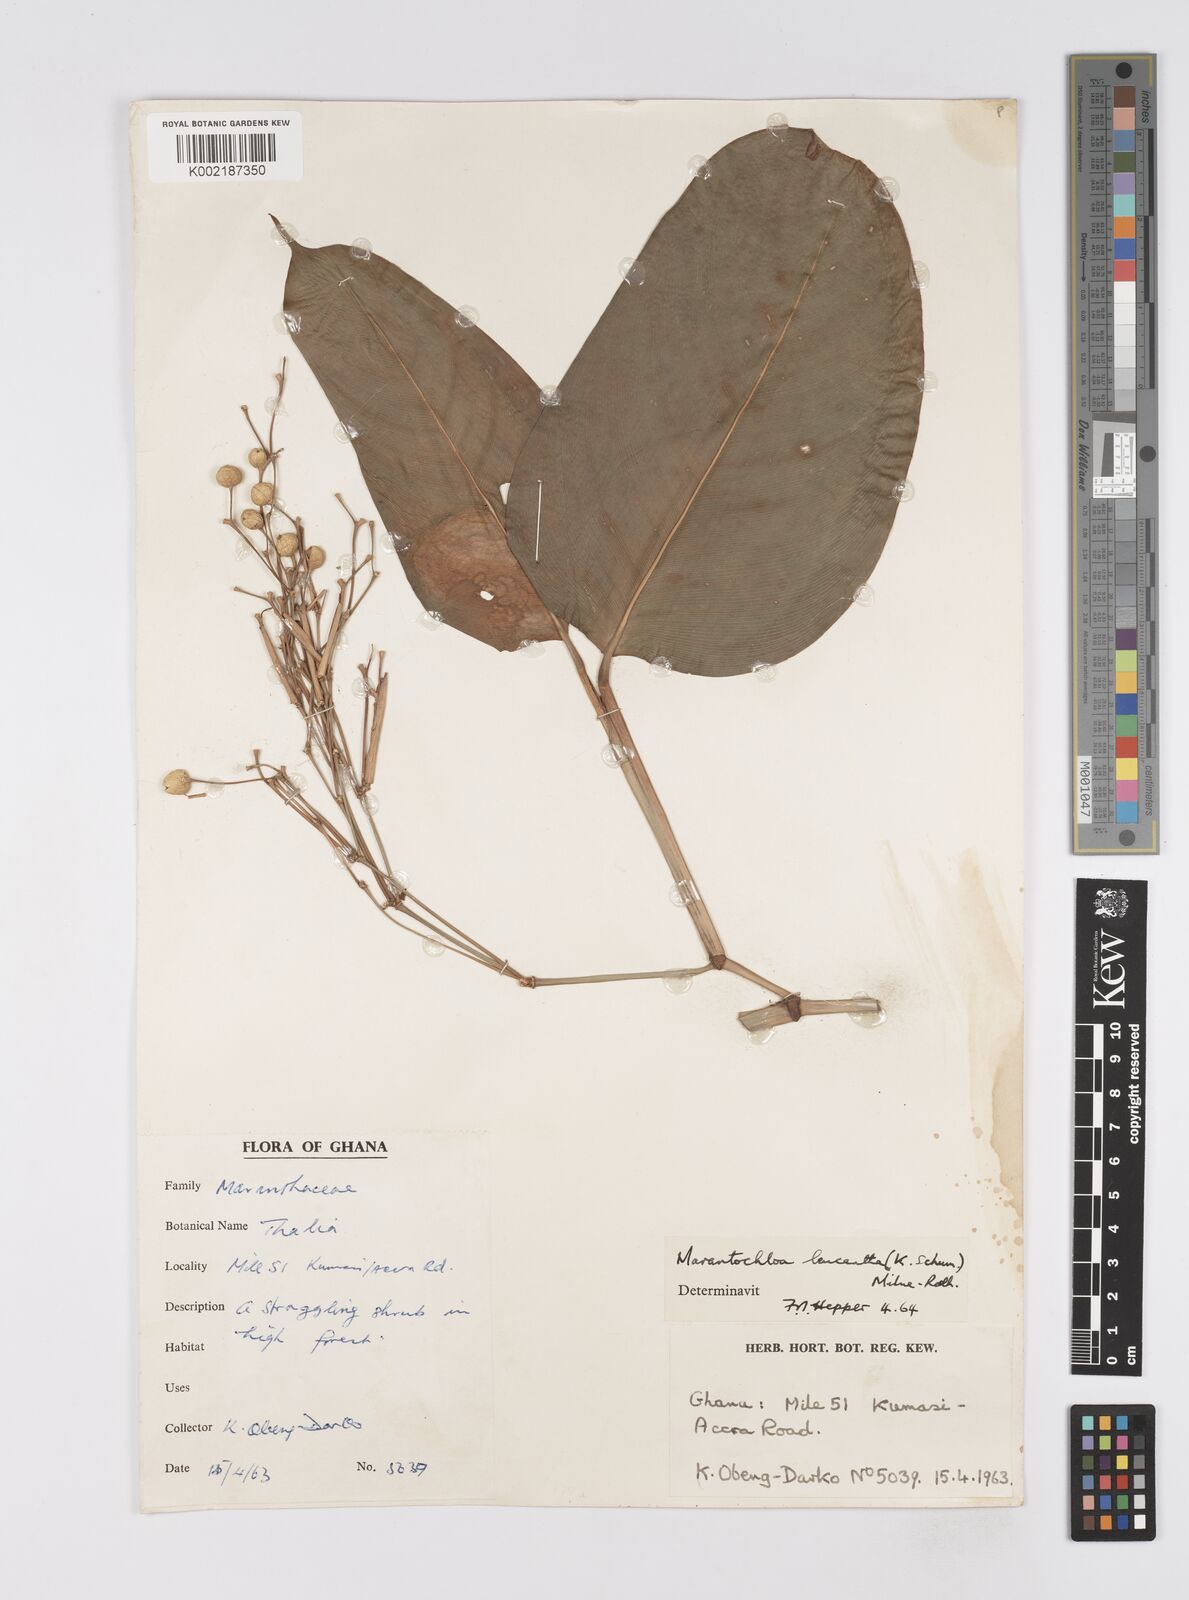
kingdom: Plantae
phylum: Tracheophyta
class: Liliopsida
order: Zingiberales
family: Marantaceae
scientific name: Marantaceae
